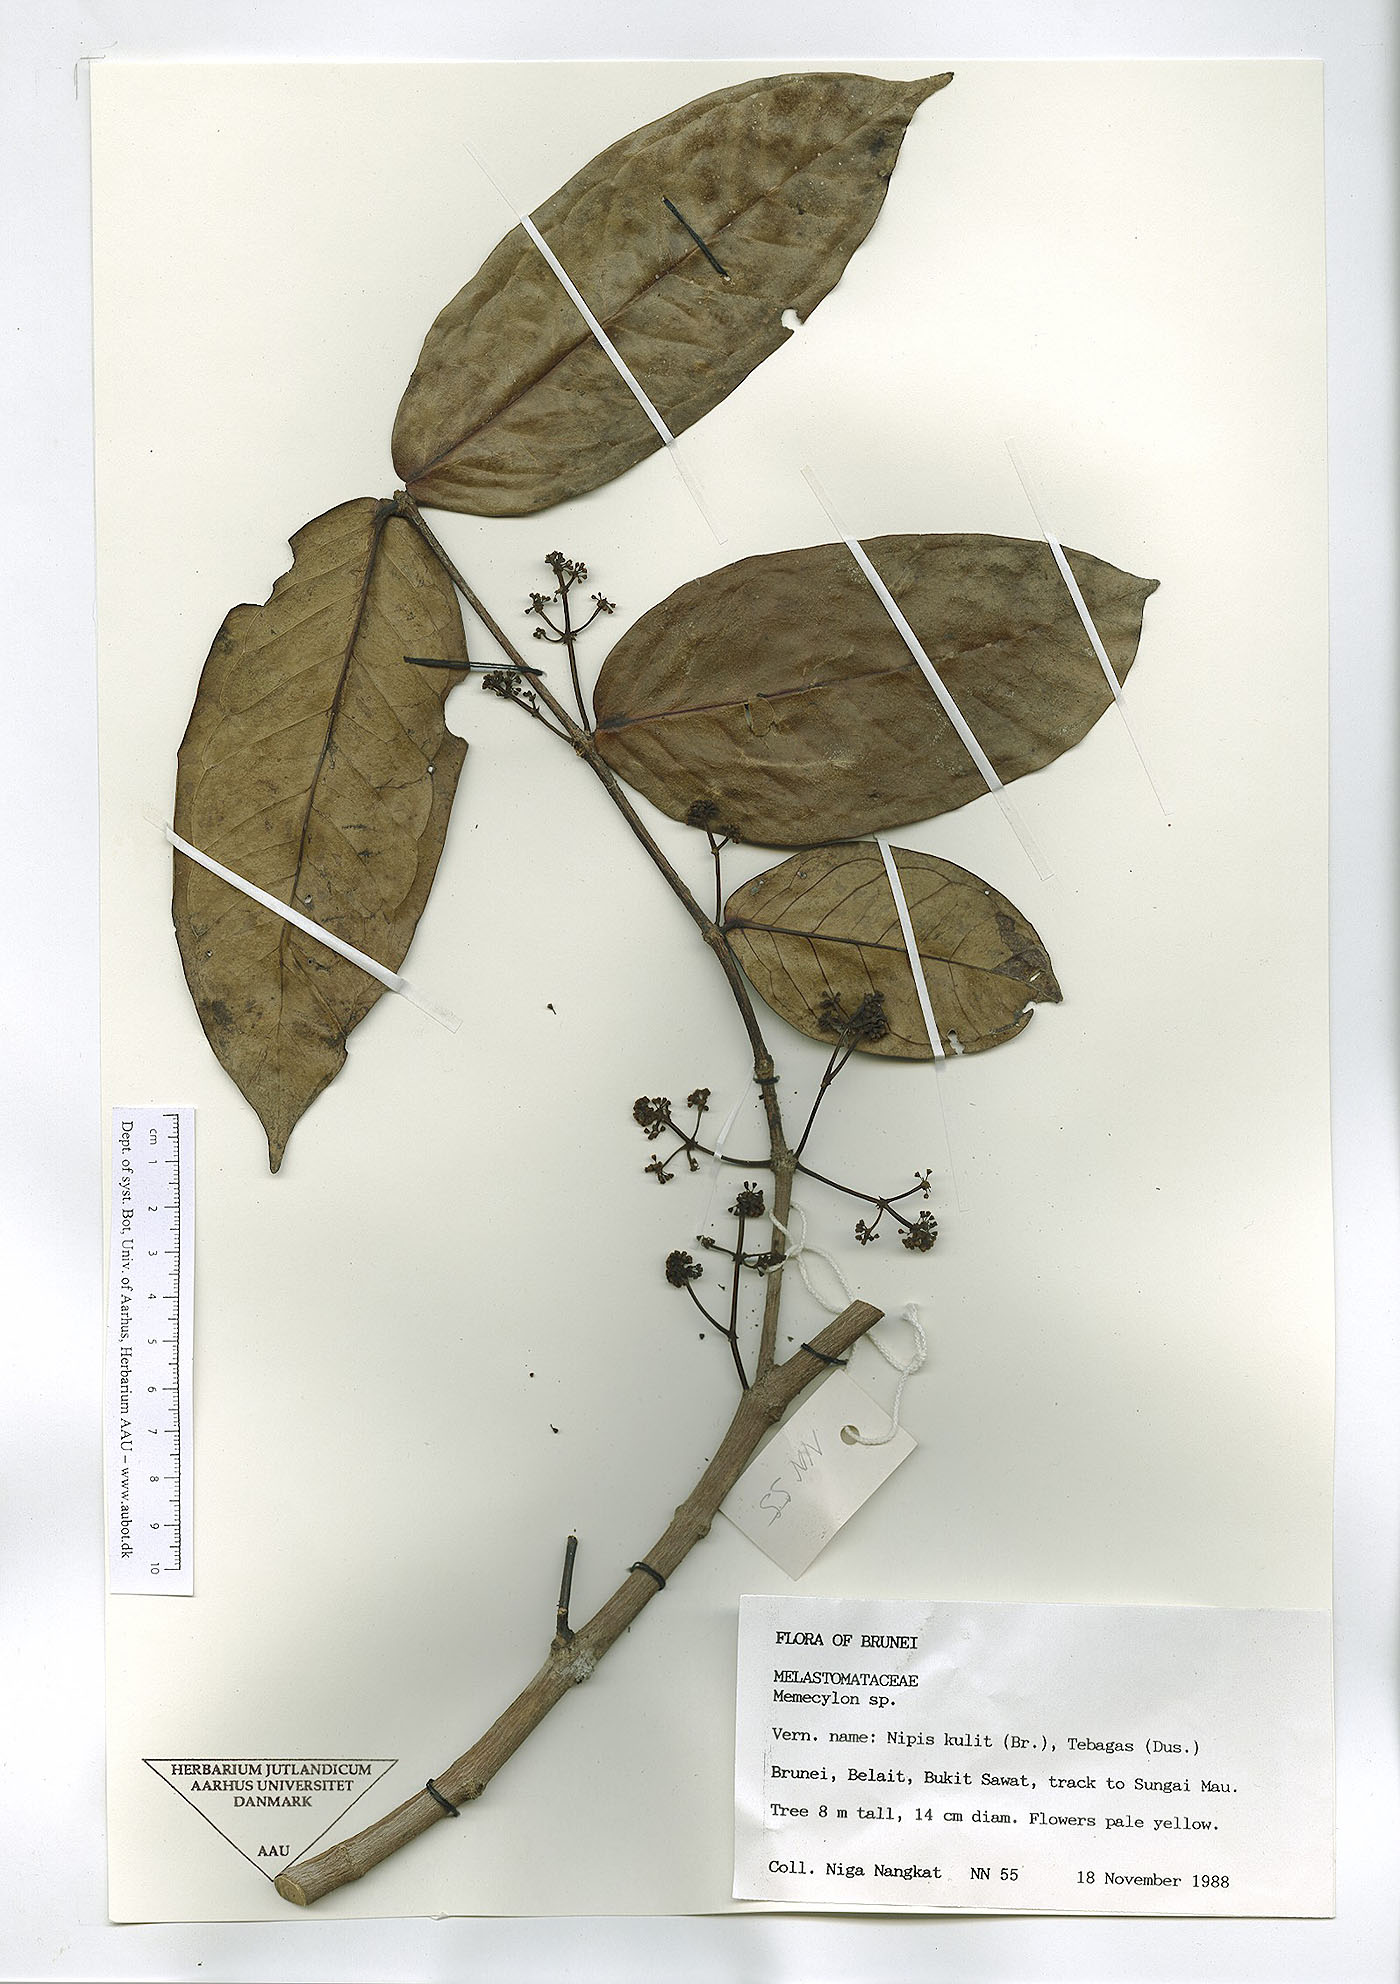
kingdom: Plantae
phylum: Tracheophyta
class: Magnoliopsida
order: Myrtales
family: Melastomataceae
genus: Memecylon
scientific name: Memecylon
